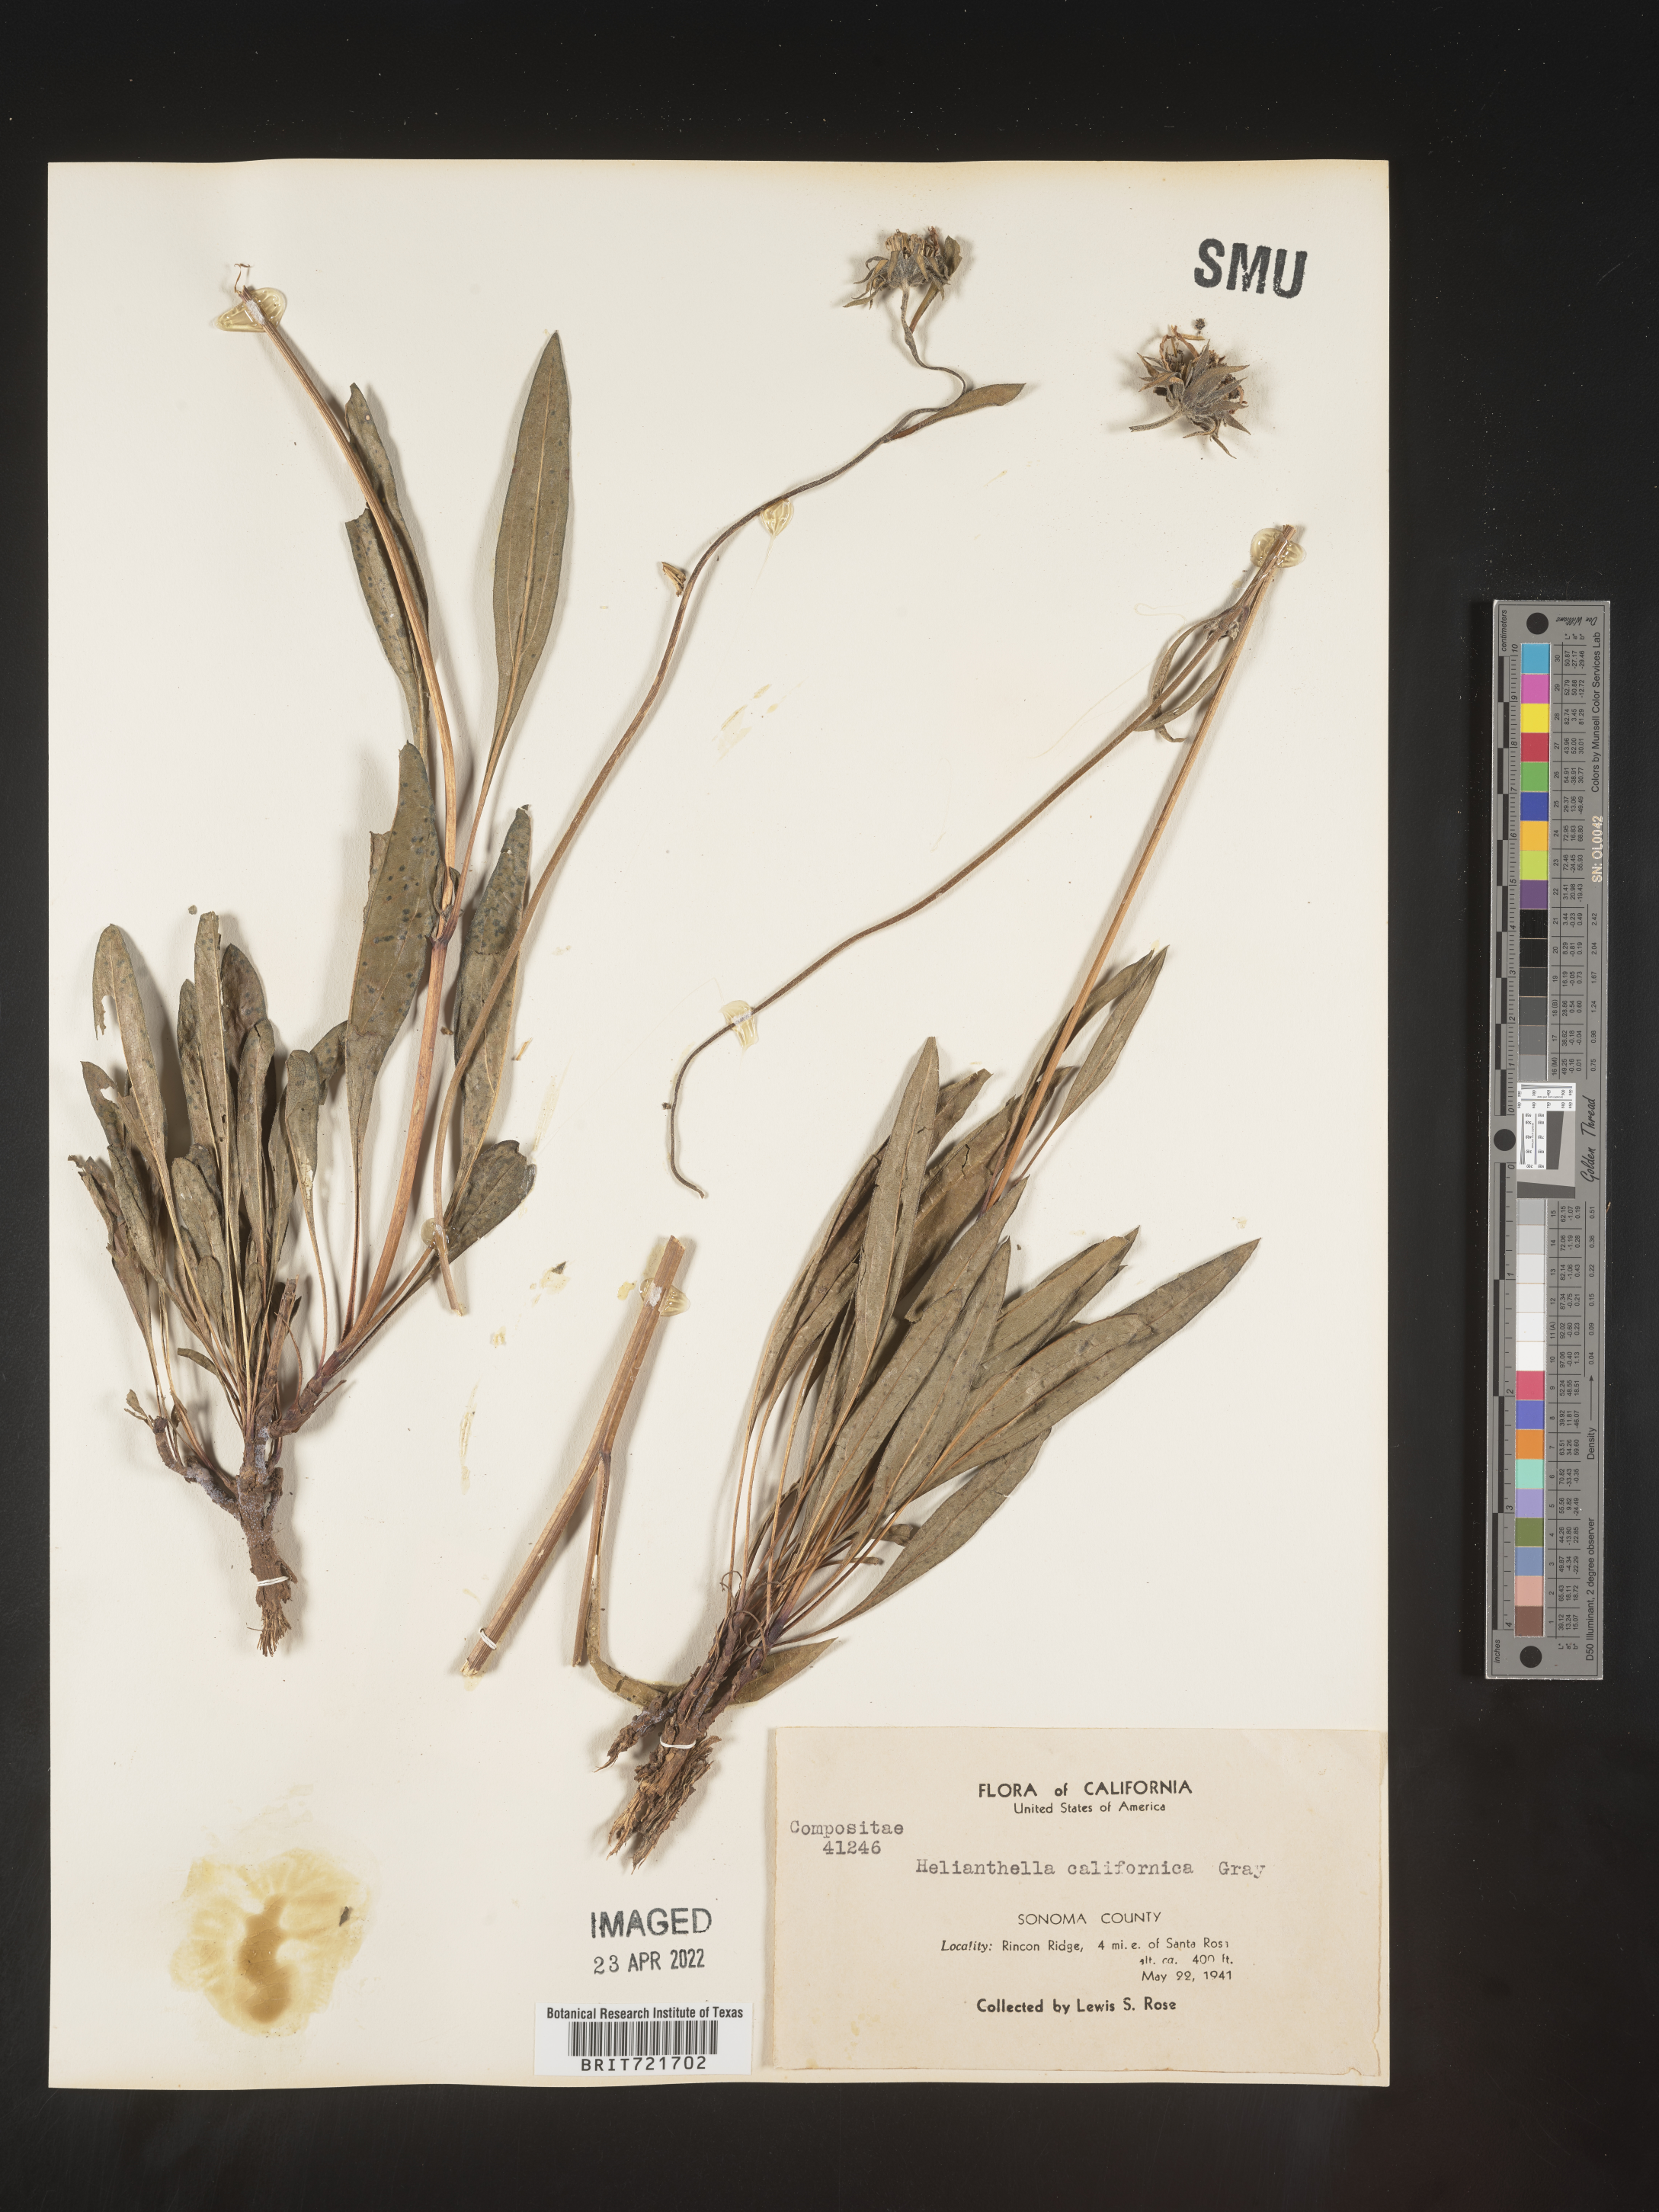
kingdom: Plantae
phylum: Tracheophyta
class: Magnoliopsida
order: Asterales
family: Asteraceae
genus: Helianthella
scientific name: Helianthella californica
